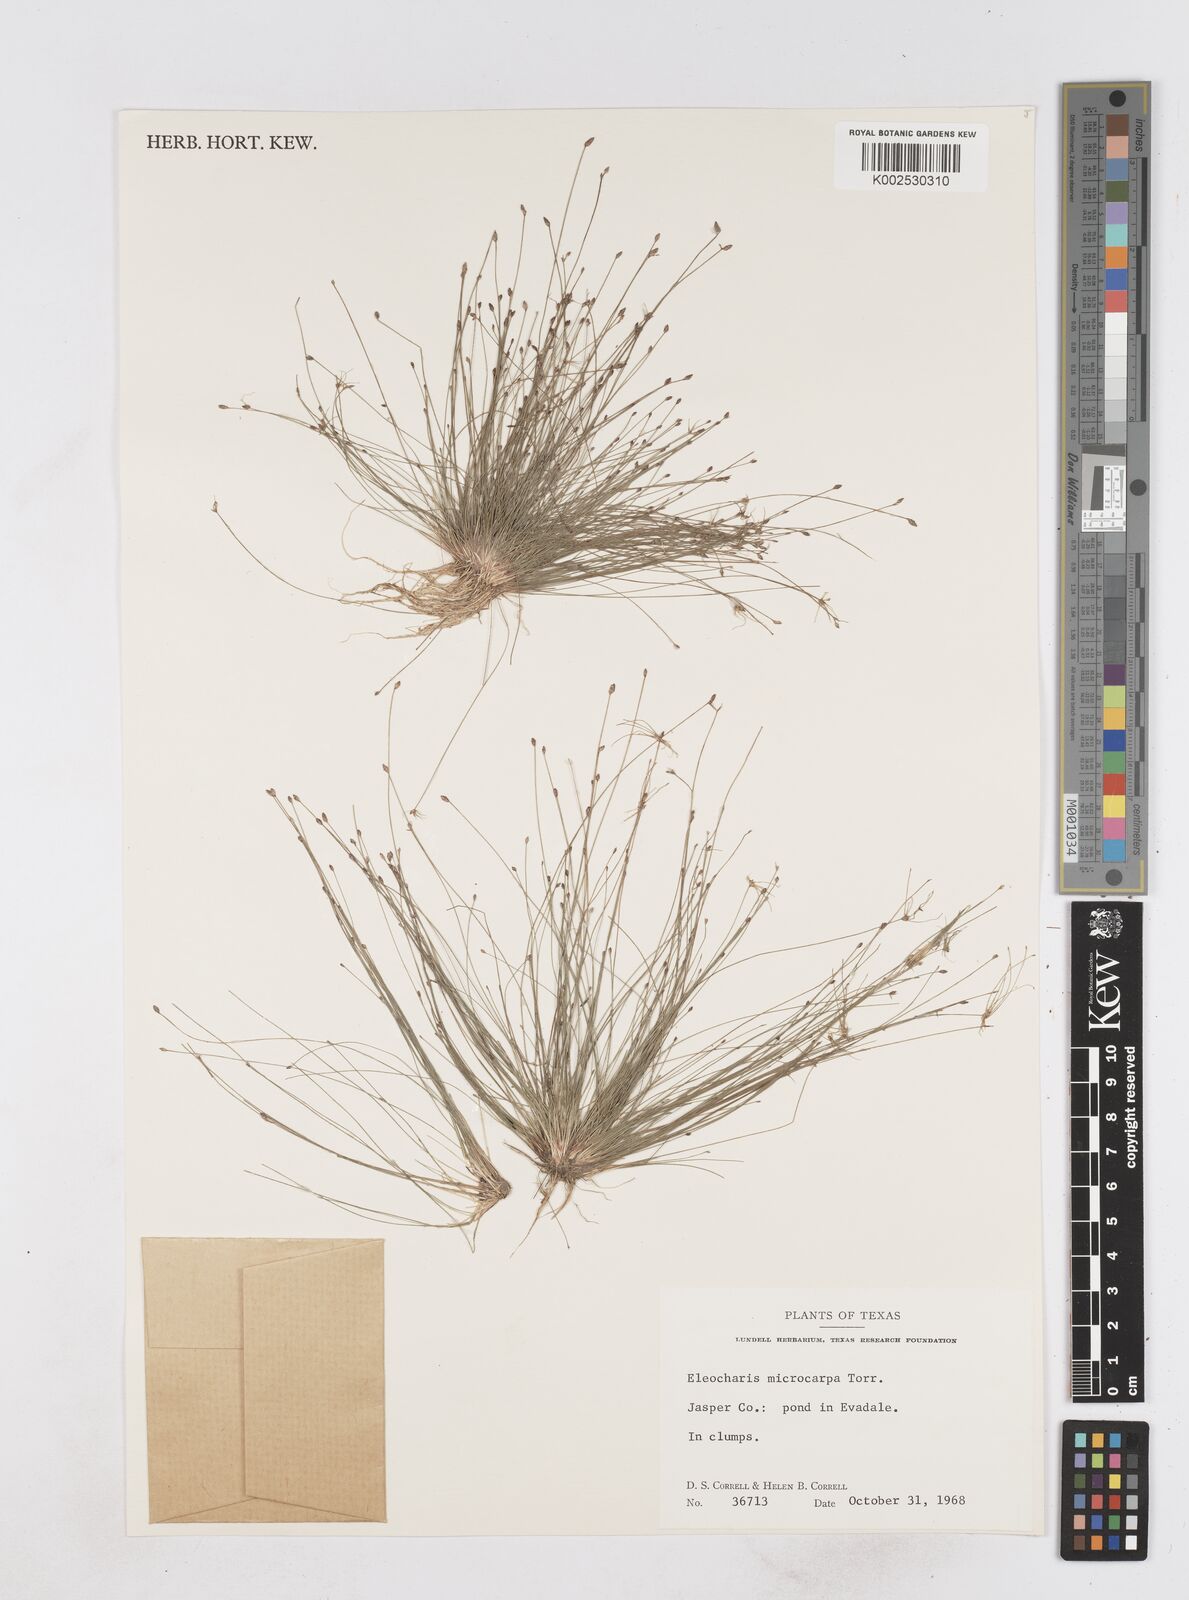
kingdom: Plantae
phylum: Tracheophyta
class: Liliopsida
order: Poales
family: Cyperaceae
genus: Eleocharis
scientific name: Eleocharis microcarpa
